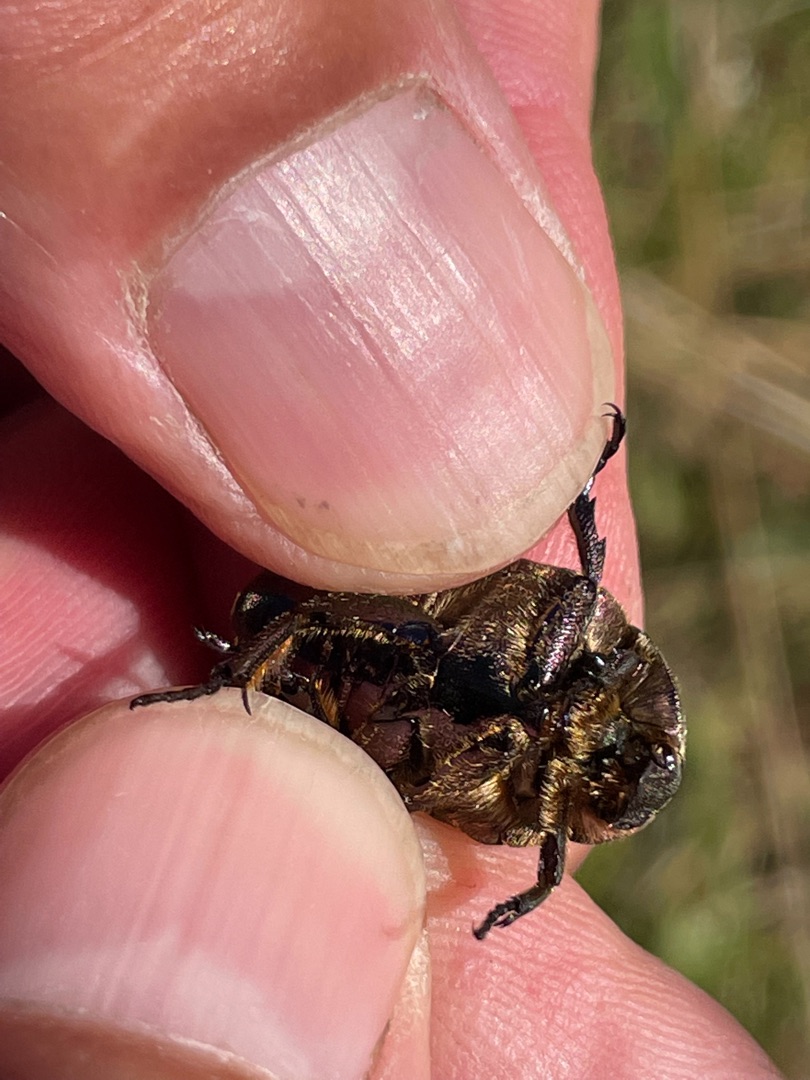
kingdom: Animalia
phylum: Arthropoda
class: Insecta
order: Coleoptera
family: Scarabaeidae
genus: Protaetia
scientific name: Protaetia cuprea
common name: Kobberguldbasse
